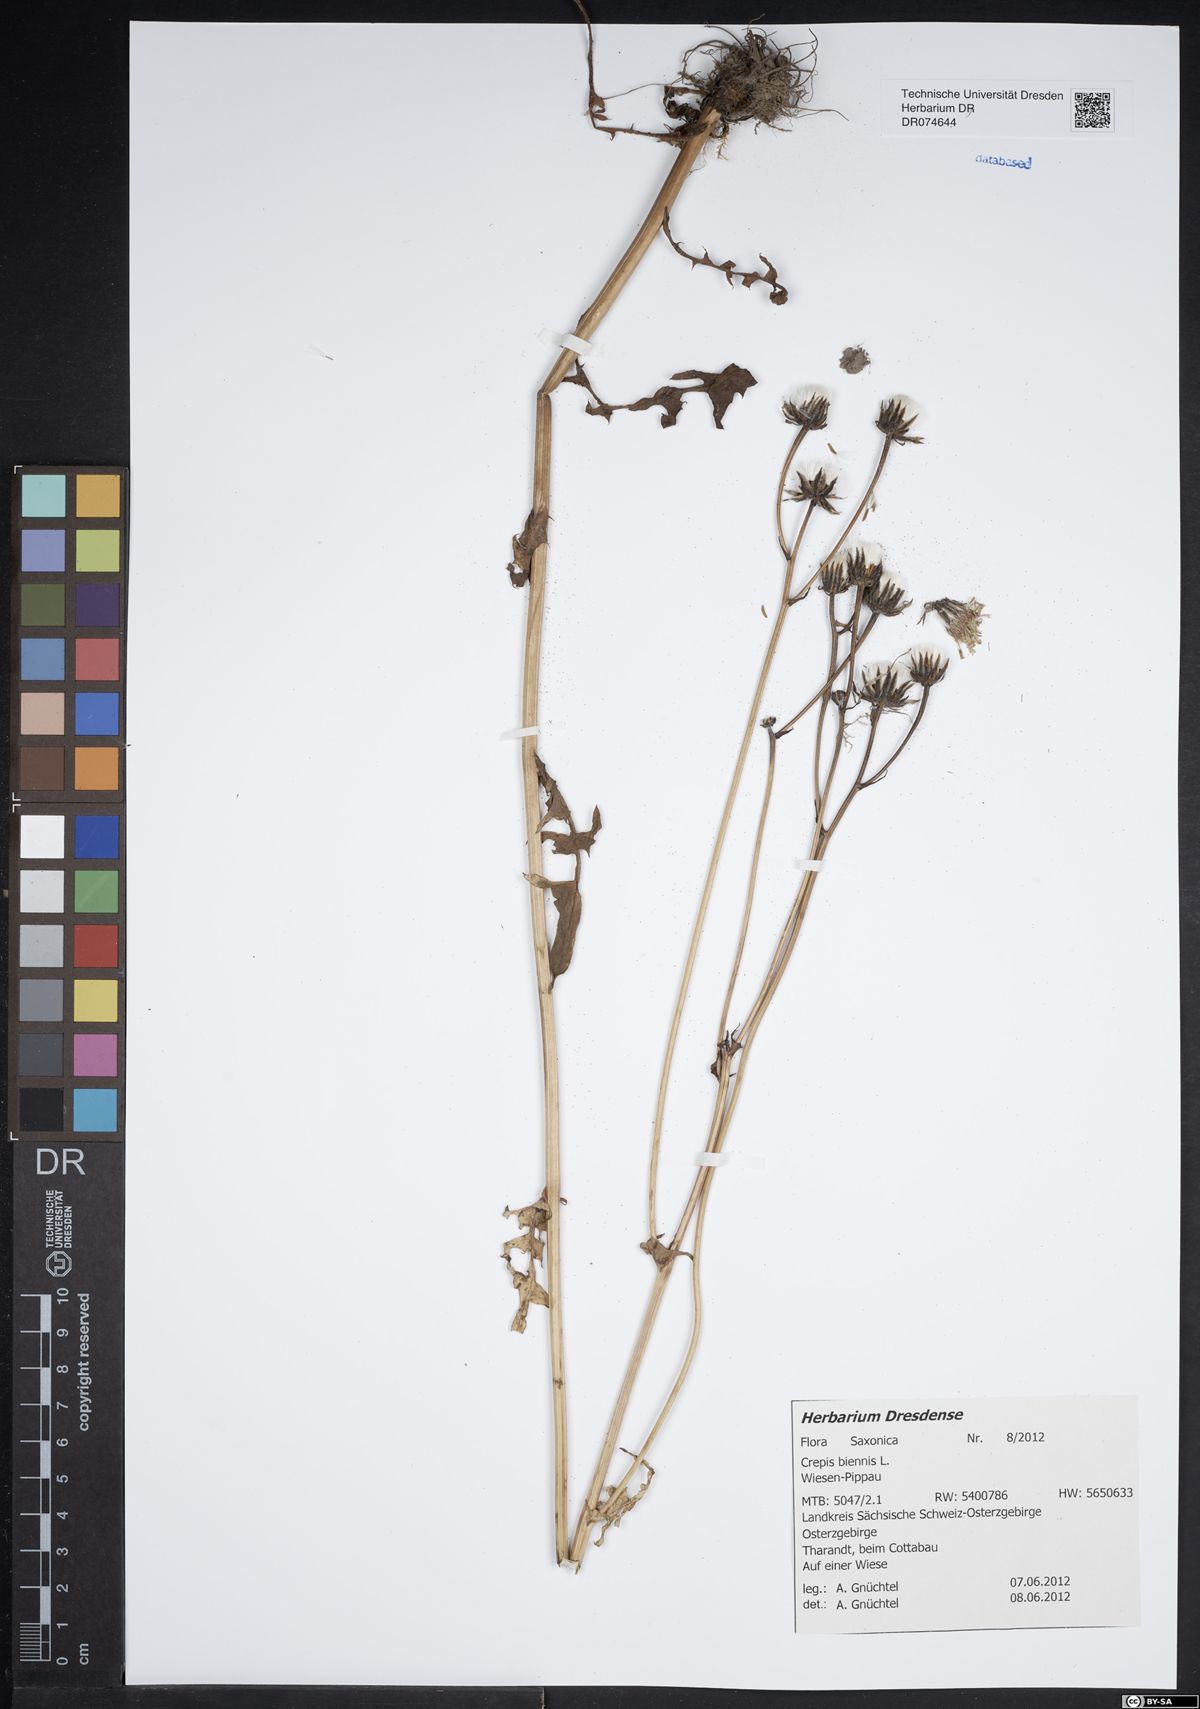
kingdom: Plantae
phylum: Tracheophyta
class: Magnoliopsida
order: Asterales
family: Asteraceae
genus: Crepis
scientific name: Crepis biennis
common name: Rough hawk's-beard
